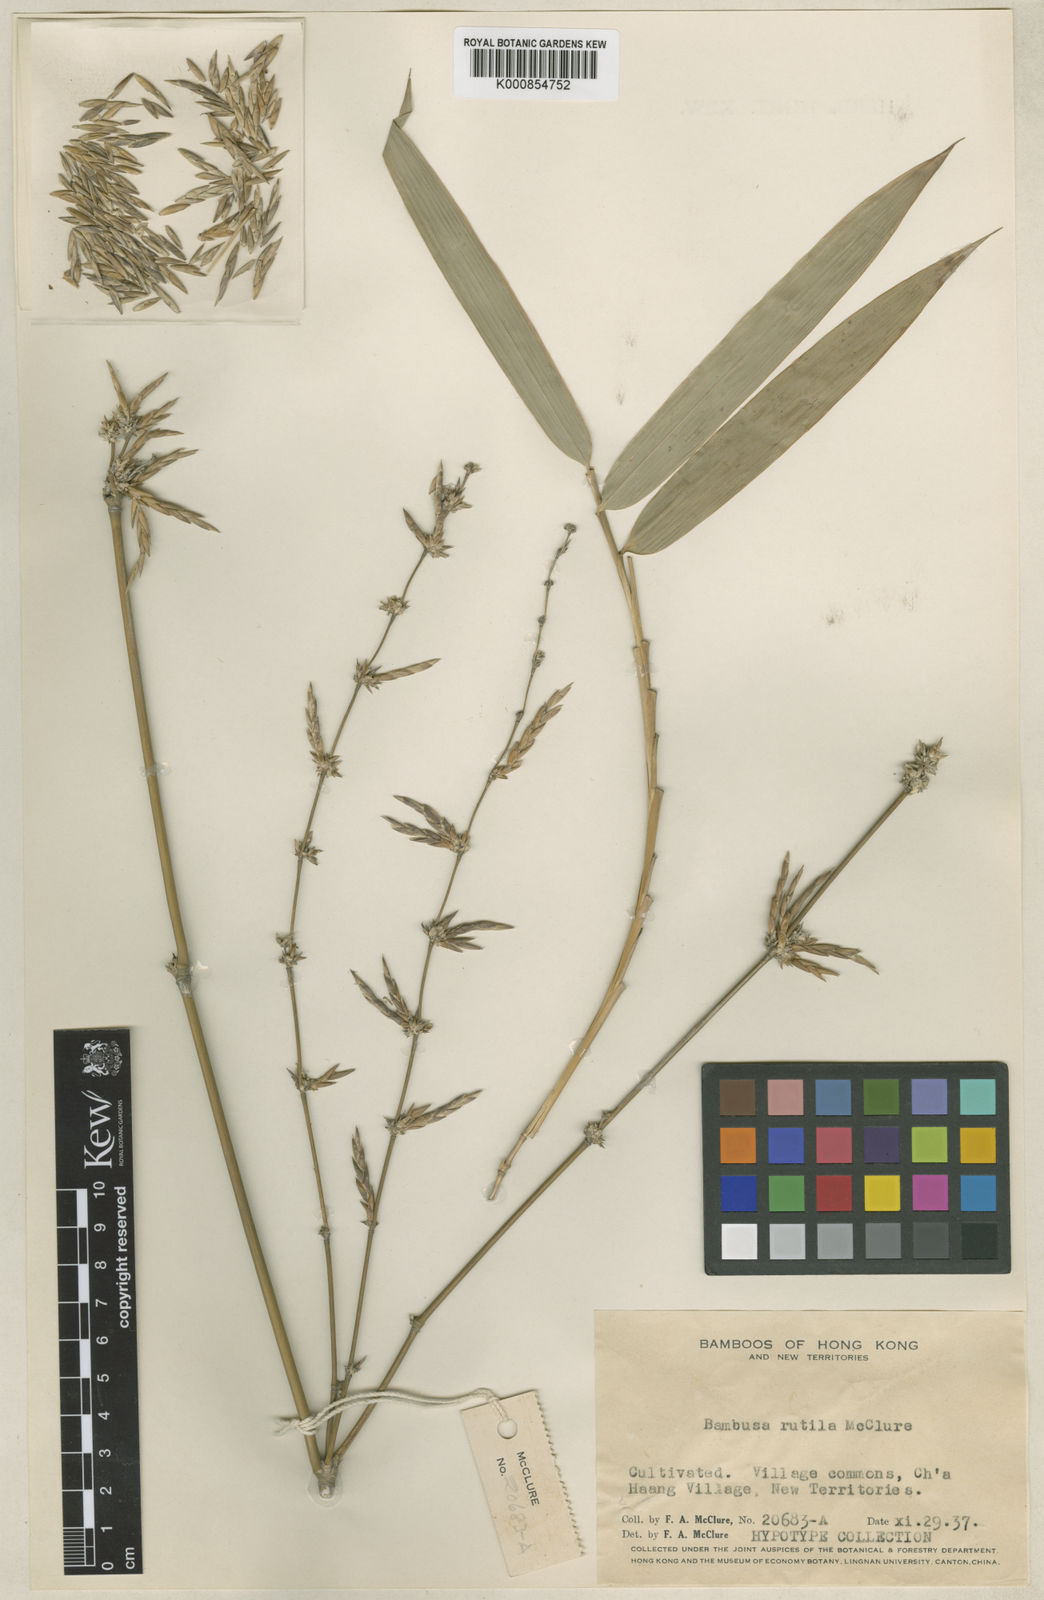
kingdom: Plantae
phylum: Tracheophyta
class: Liliopsida
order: Poales
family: Poaceae
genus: Bambusa
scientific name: Bambusa rutila
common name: Muk bamboo
